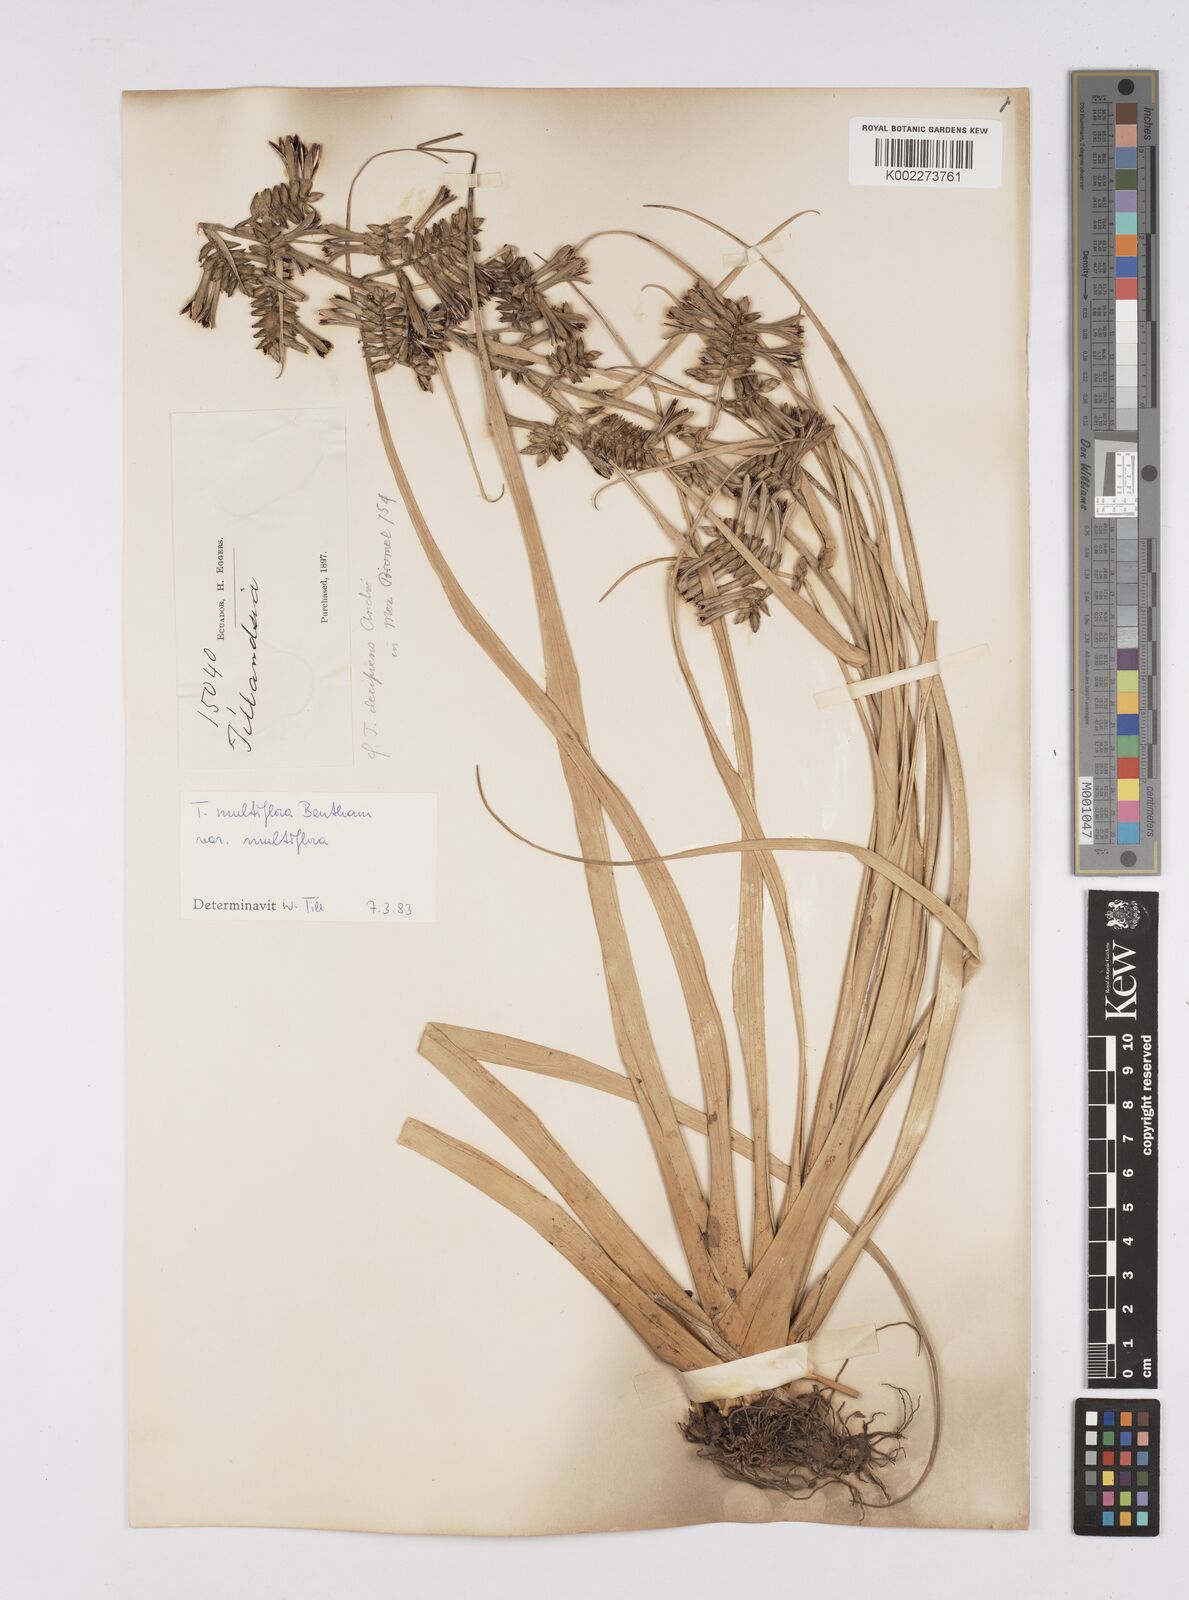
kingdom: Plantae
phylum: Tracheophyta
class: Liliopsida
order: Poales
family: Bromeliaceae
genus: Racinaea
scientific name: Racinaea multiflora
